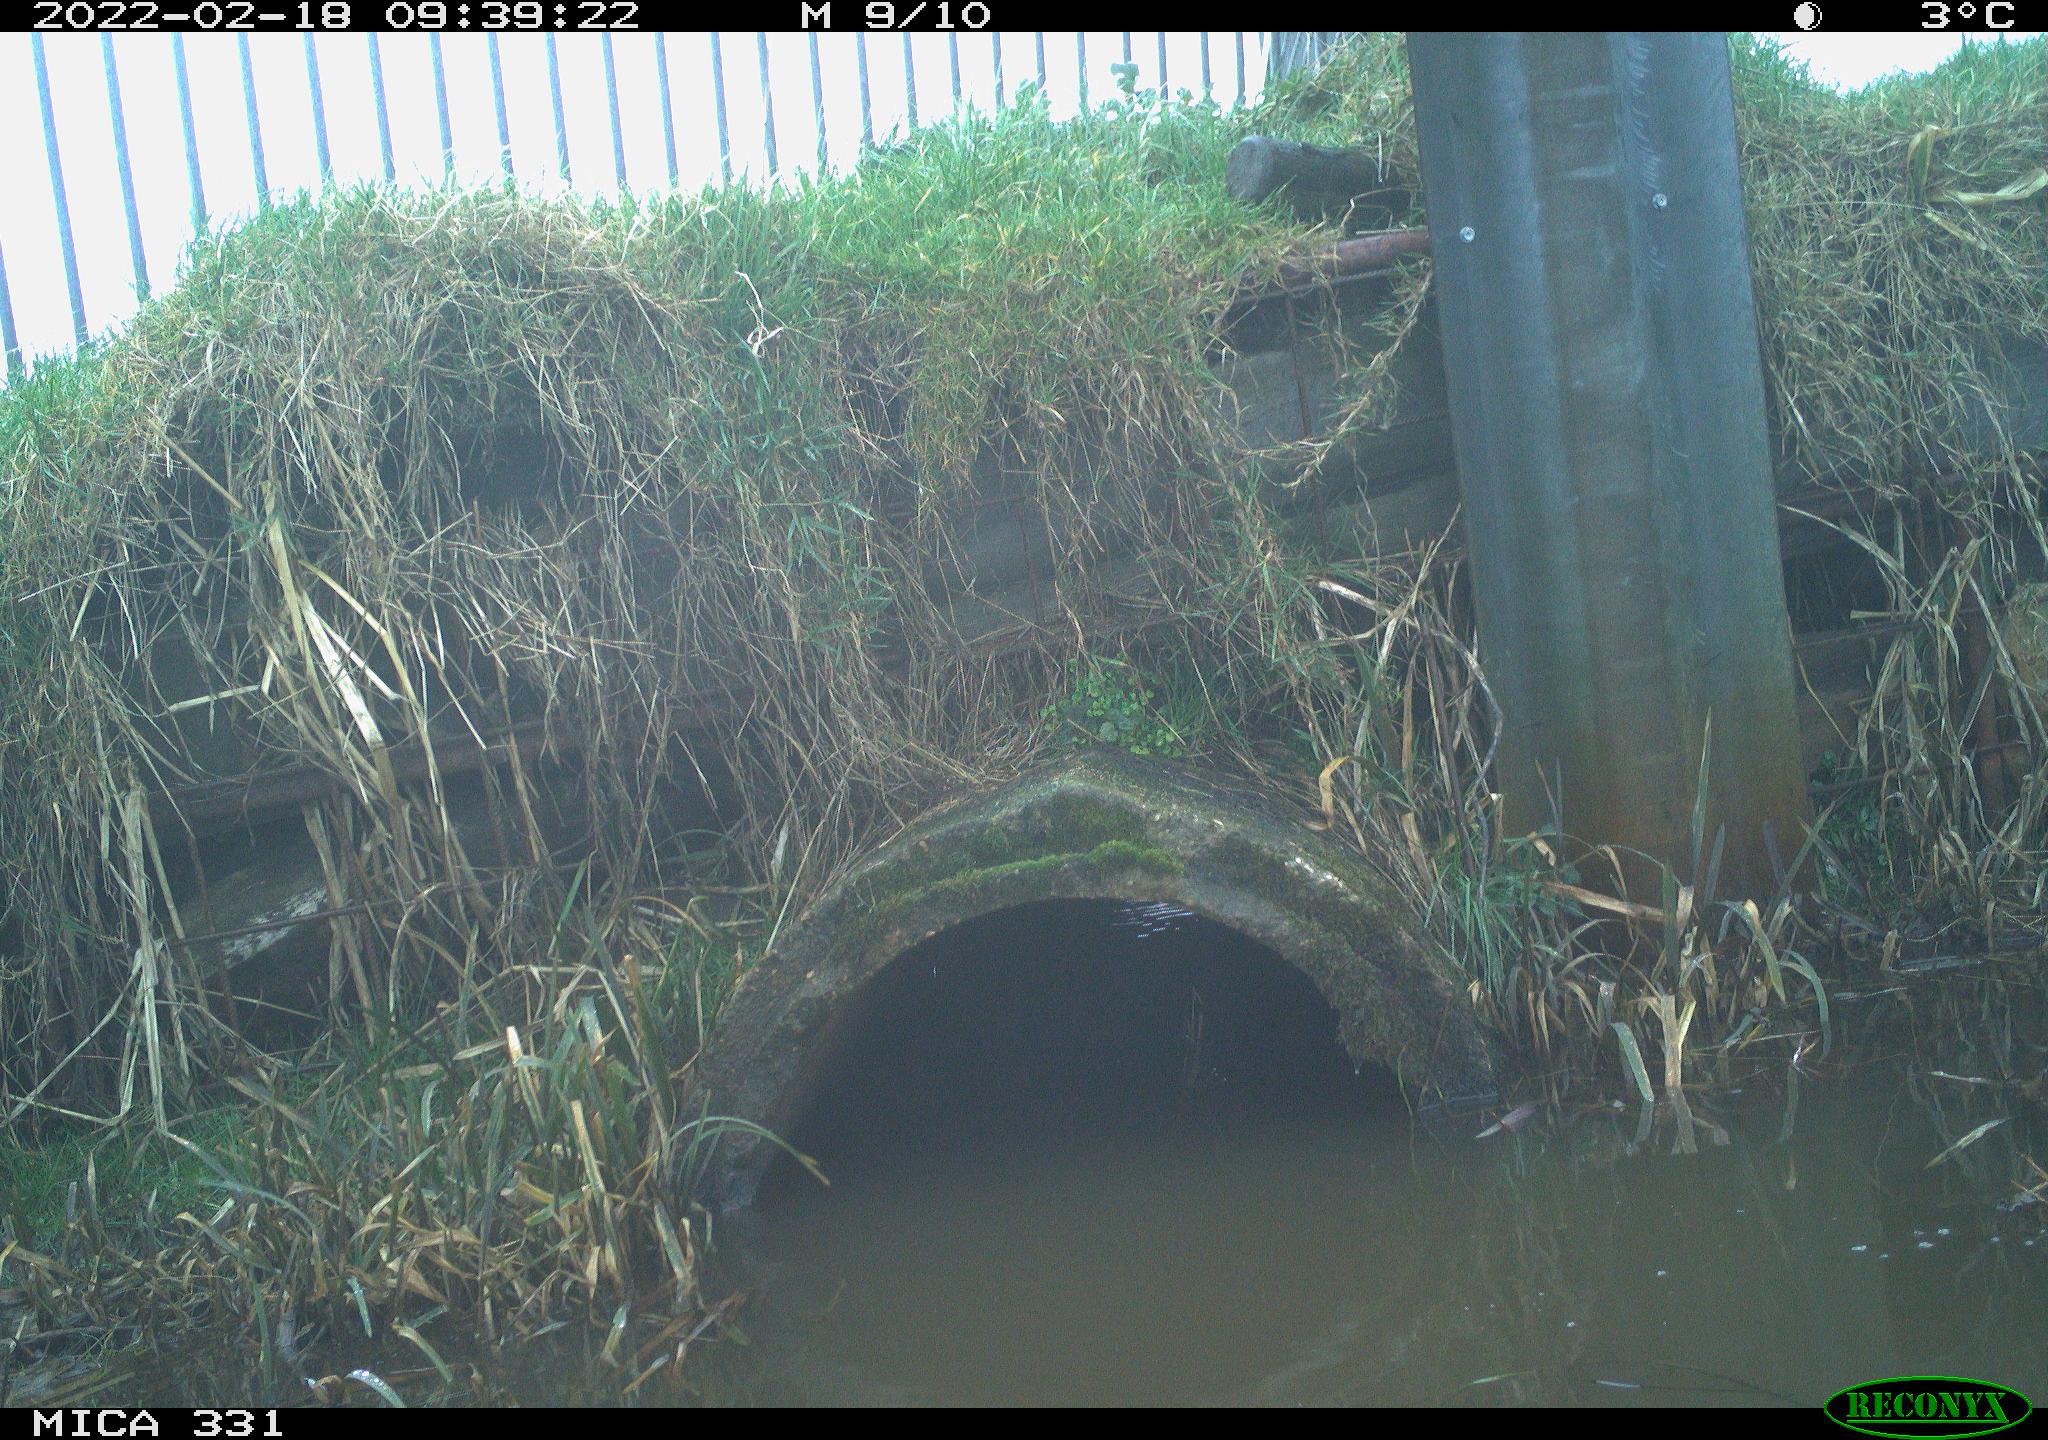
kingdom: Animalia
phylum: Chordata
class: Aves
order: Pelecaniformes
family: Ardeidae
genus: Ardea
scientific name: Ardea alba
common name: Great egret
